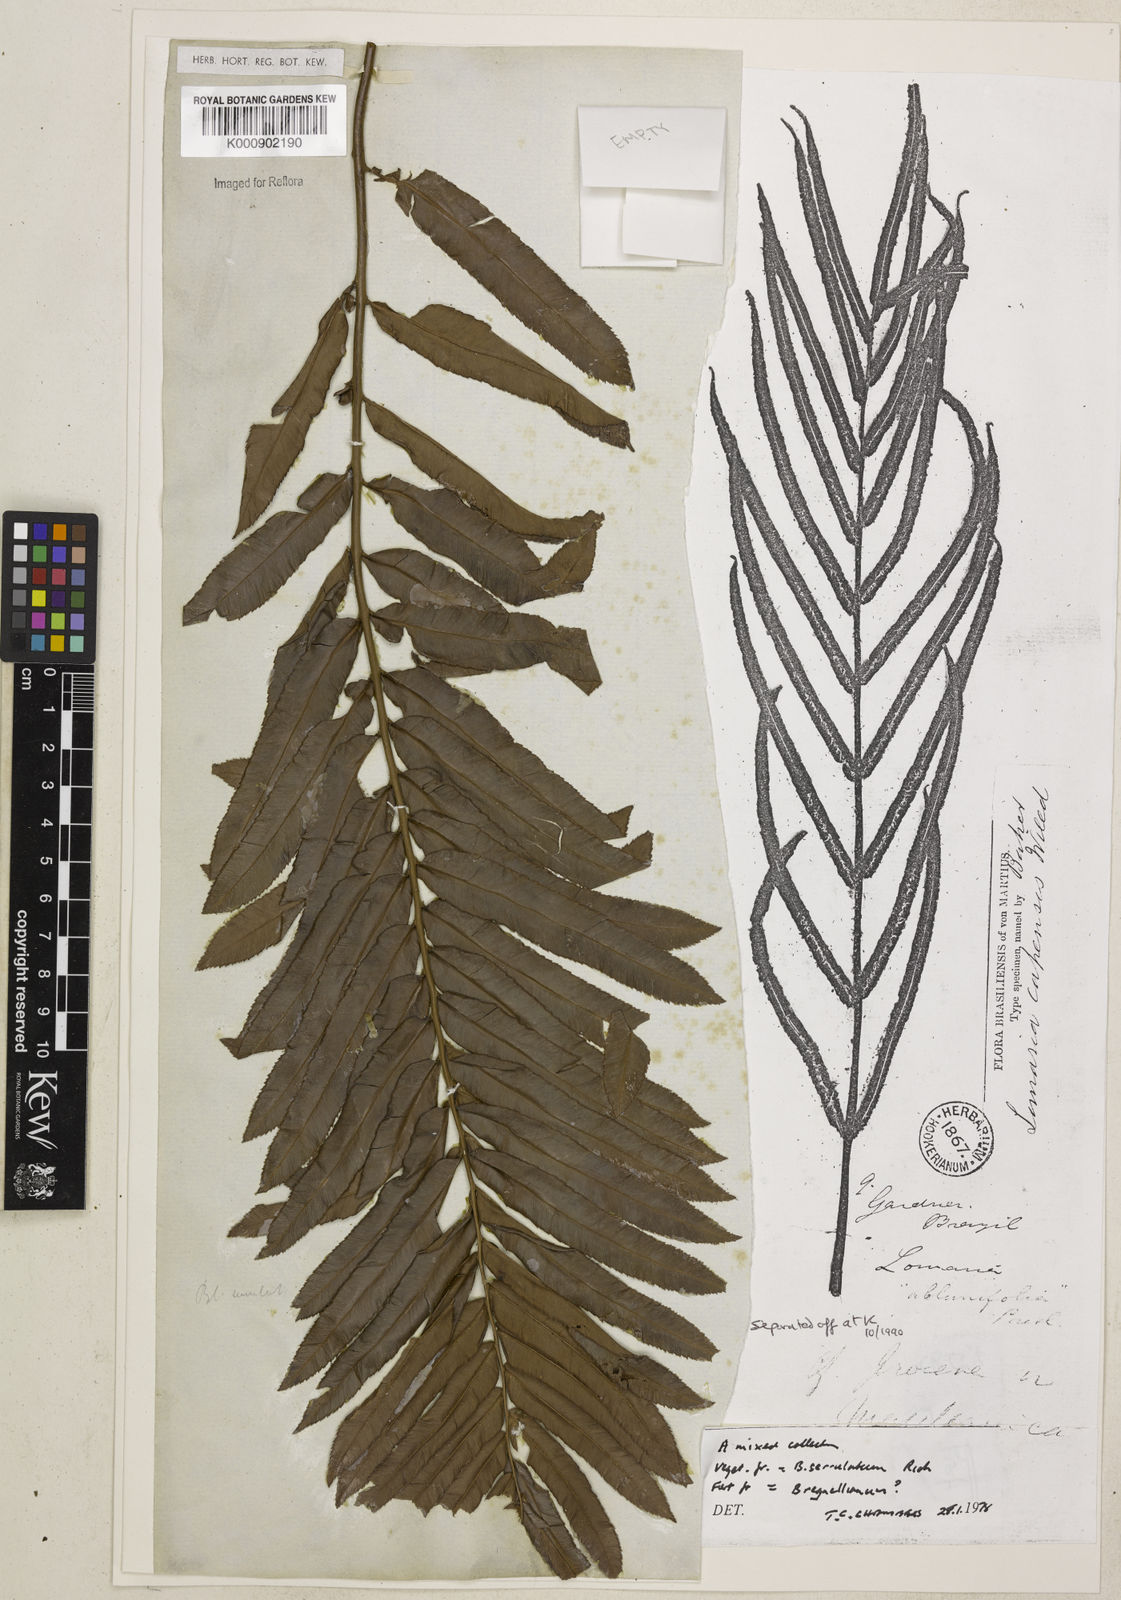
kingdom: Plantae
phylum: Tracheophyta
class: Polypodiopsida
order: Polypodiales
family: Blechnaceae
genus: Telmatoblechnum
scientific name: Telmatoblechnum serrulatum
